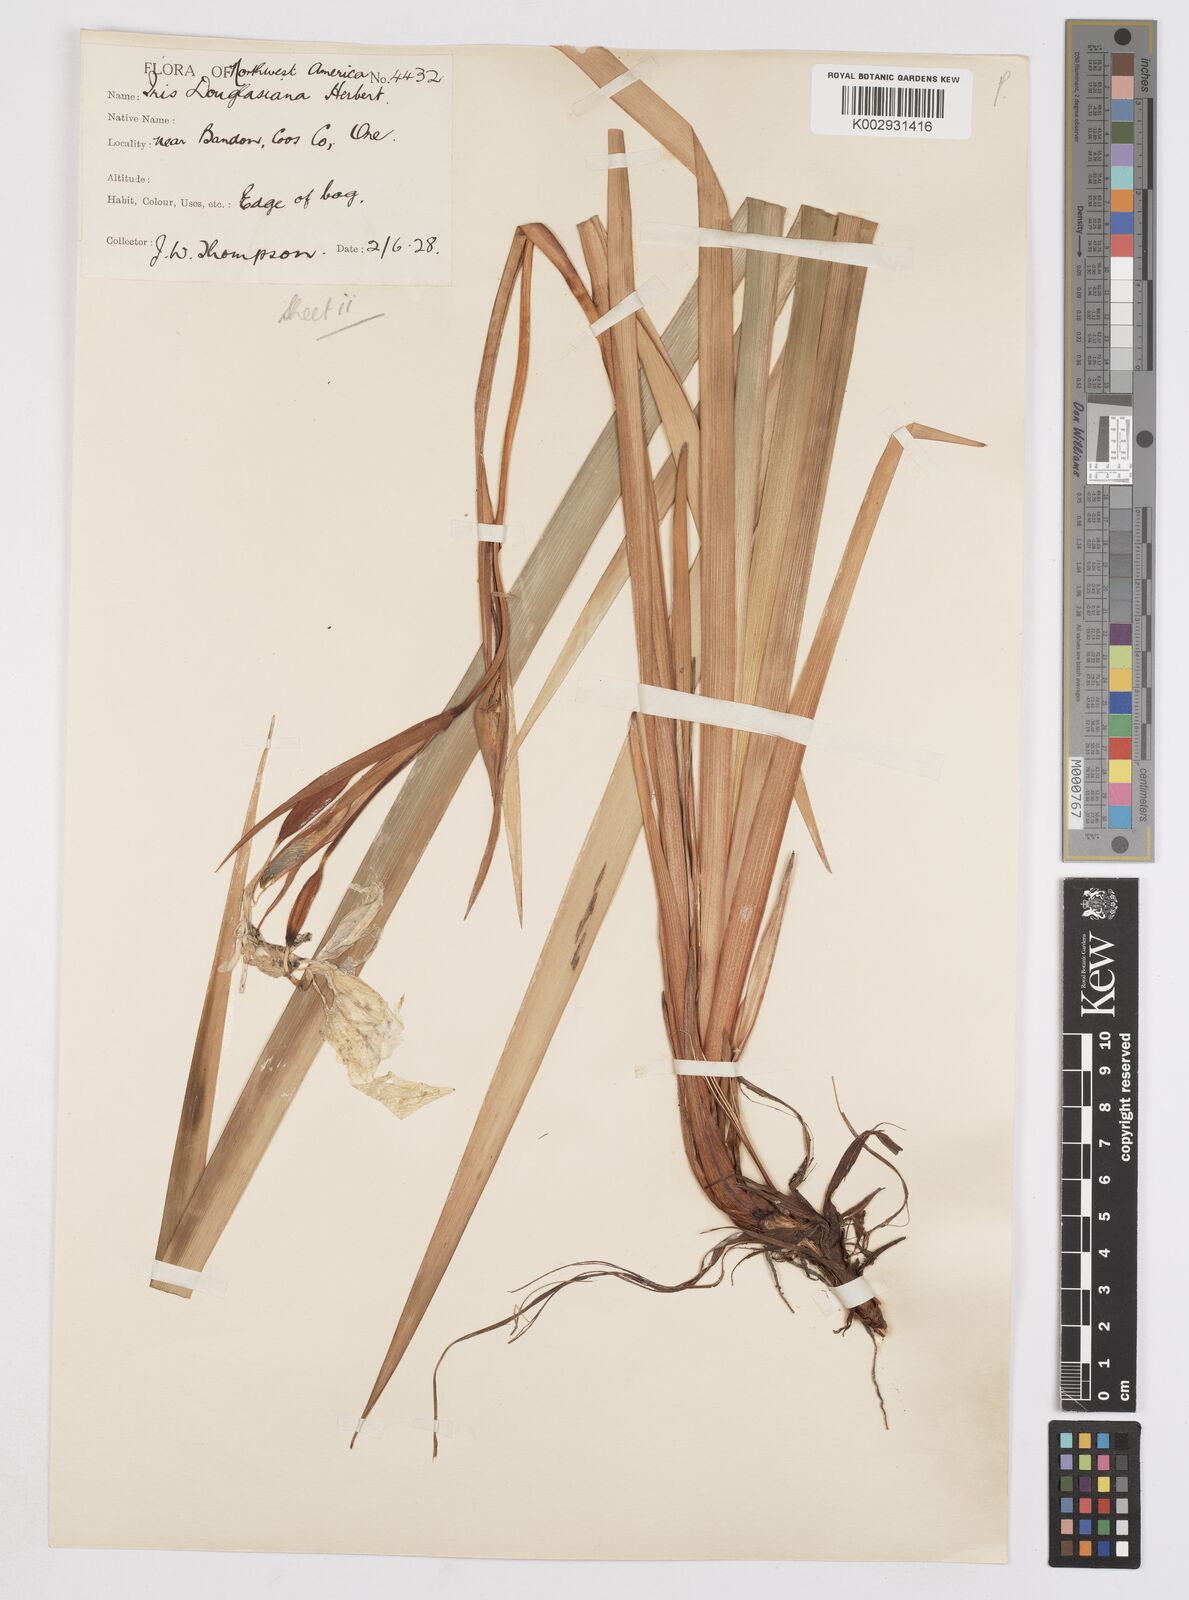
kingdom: Plantae
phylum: Tracheophyta
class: Liliopsida
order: Asparagales
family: Iridaceae
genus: Iris
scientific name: Iris douglasiana
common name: Marin iris
